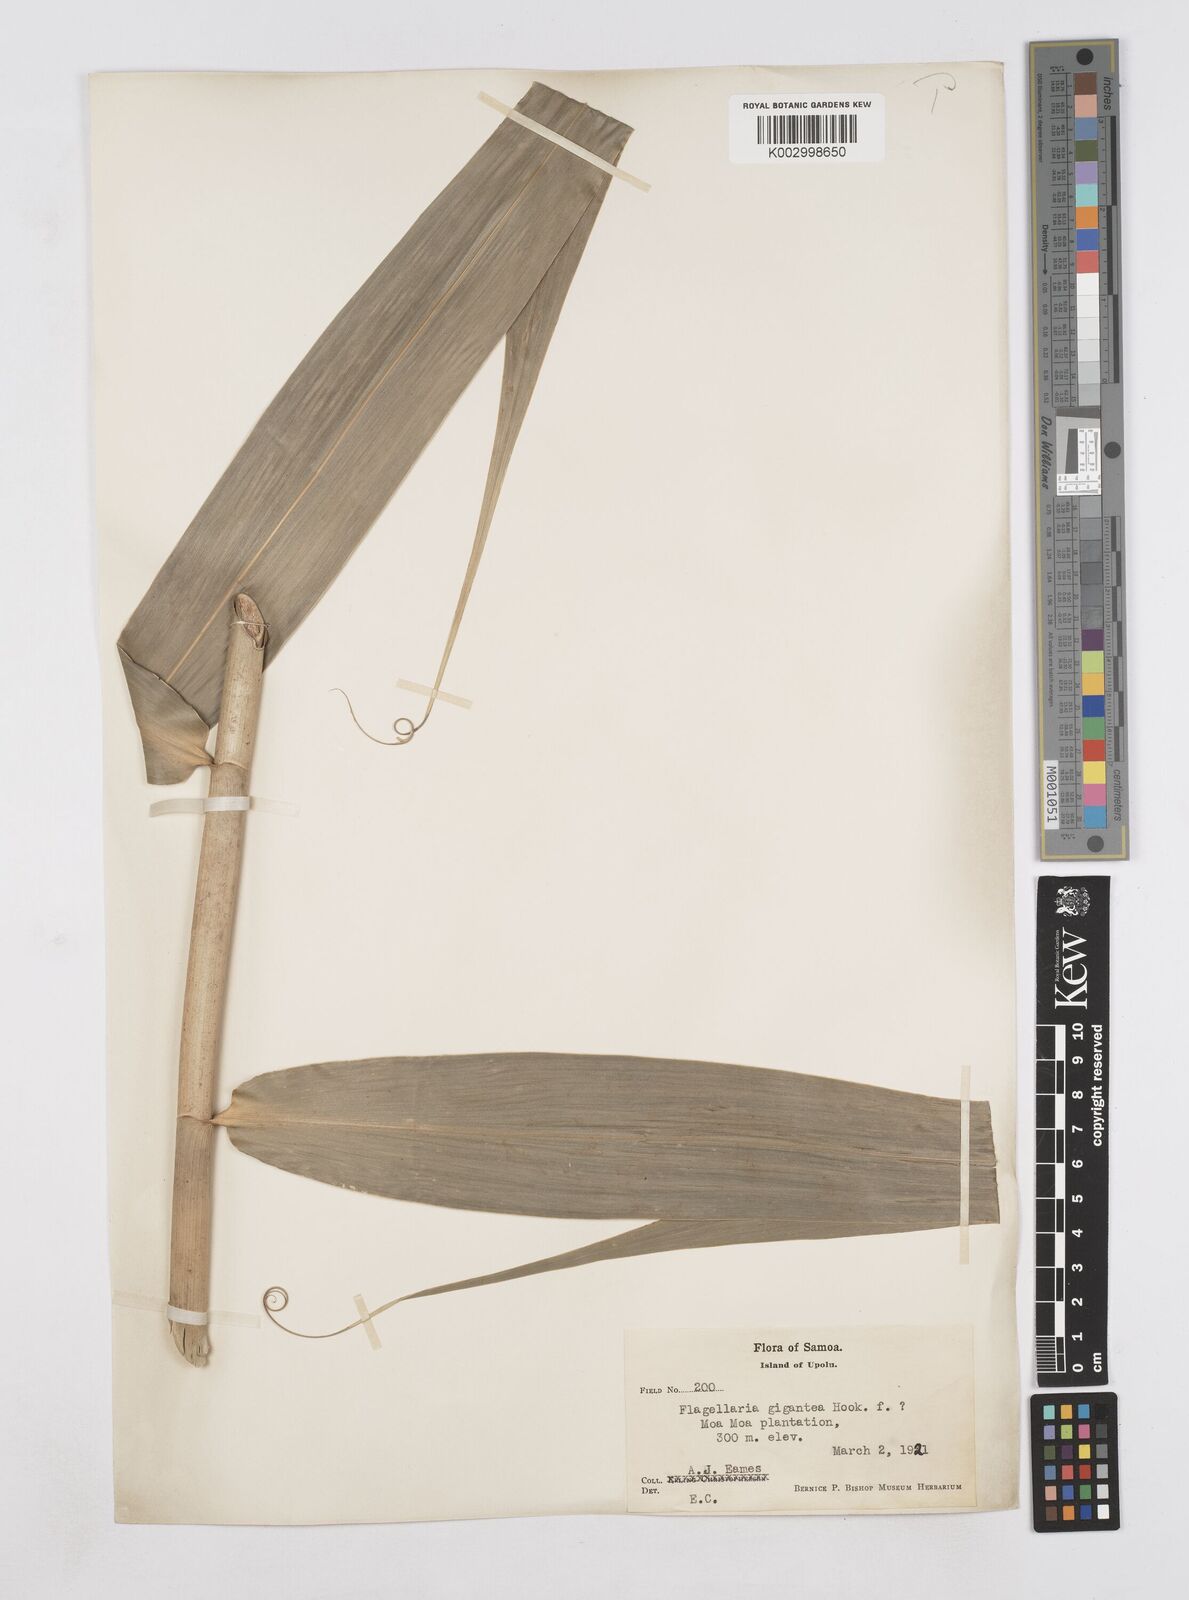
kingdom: Plantae
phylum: Tracheophyta
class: Liliopsida
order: Poales
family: Flagellariaceae
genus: Flagellaria
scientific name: Flagellaria gigantea
